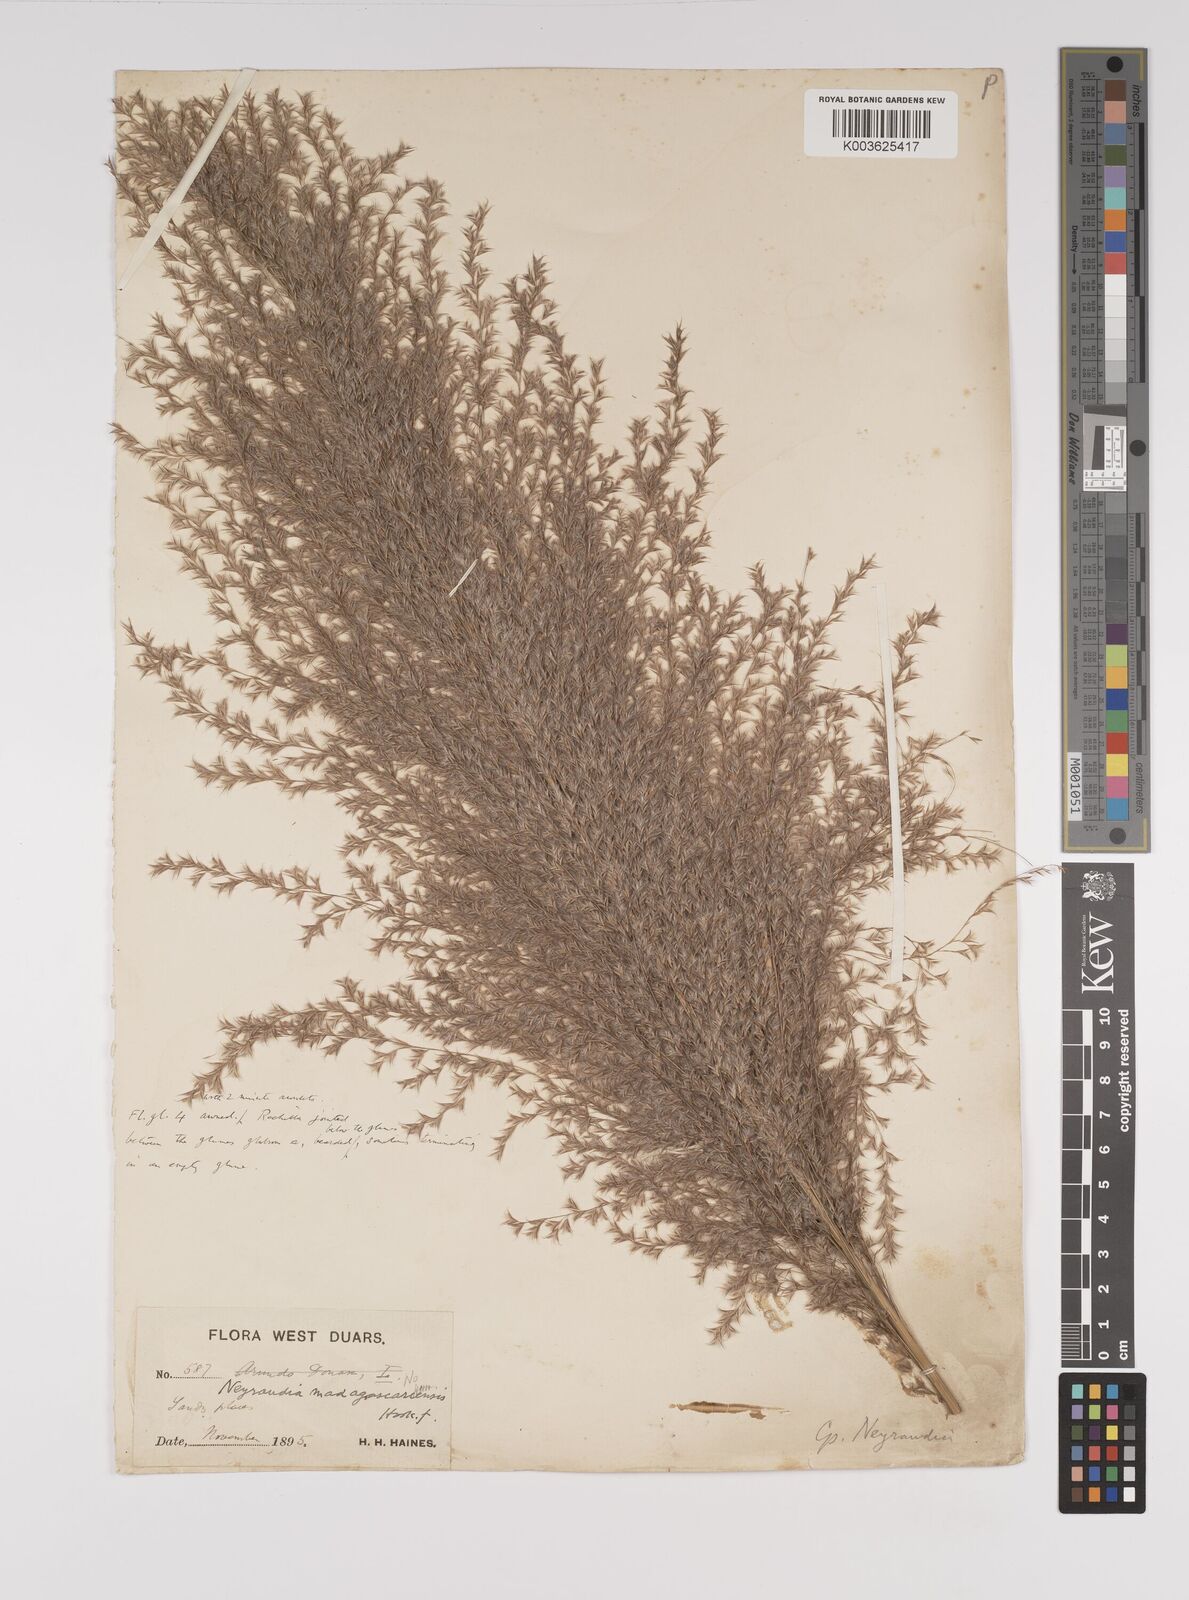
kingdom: Plantae
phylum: Tracheophyta
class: Liliopsida
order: Poales
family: Poaceae
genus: Neyraudia
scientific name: Neyraudia reynaudiana
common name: Silkreed
